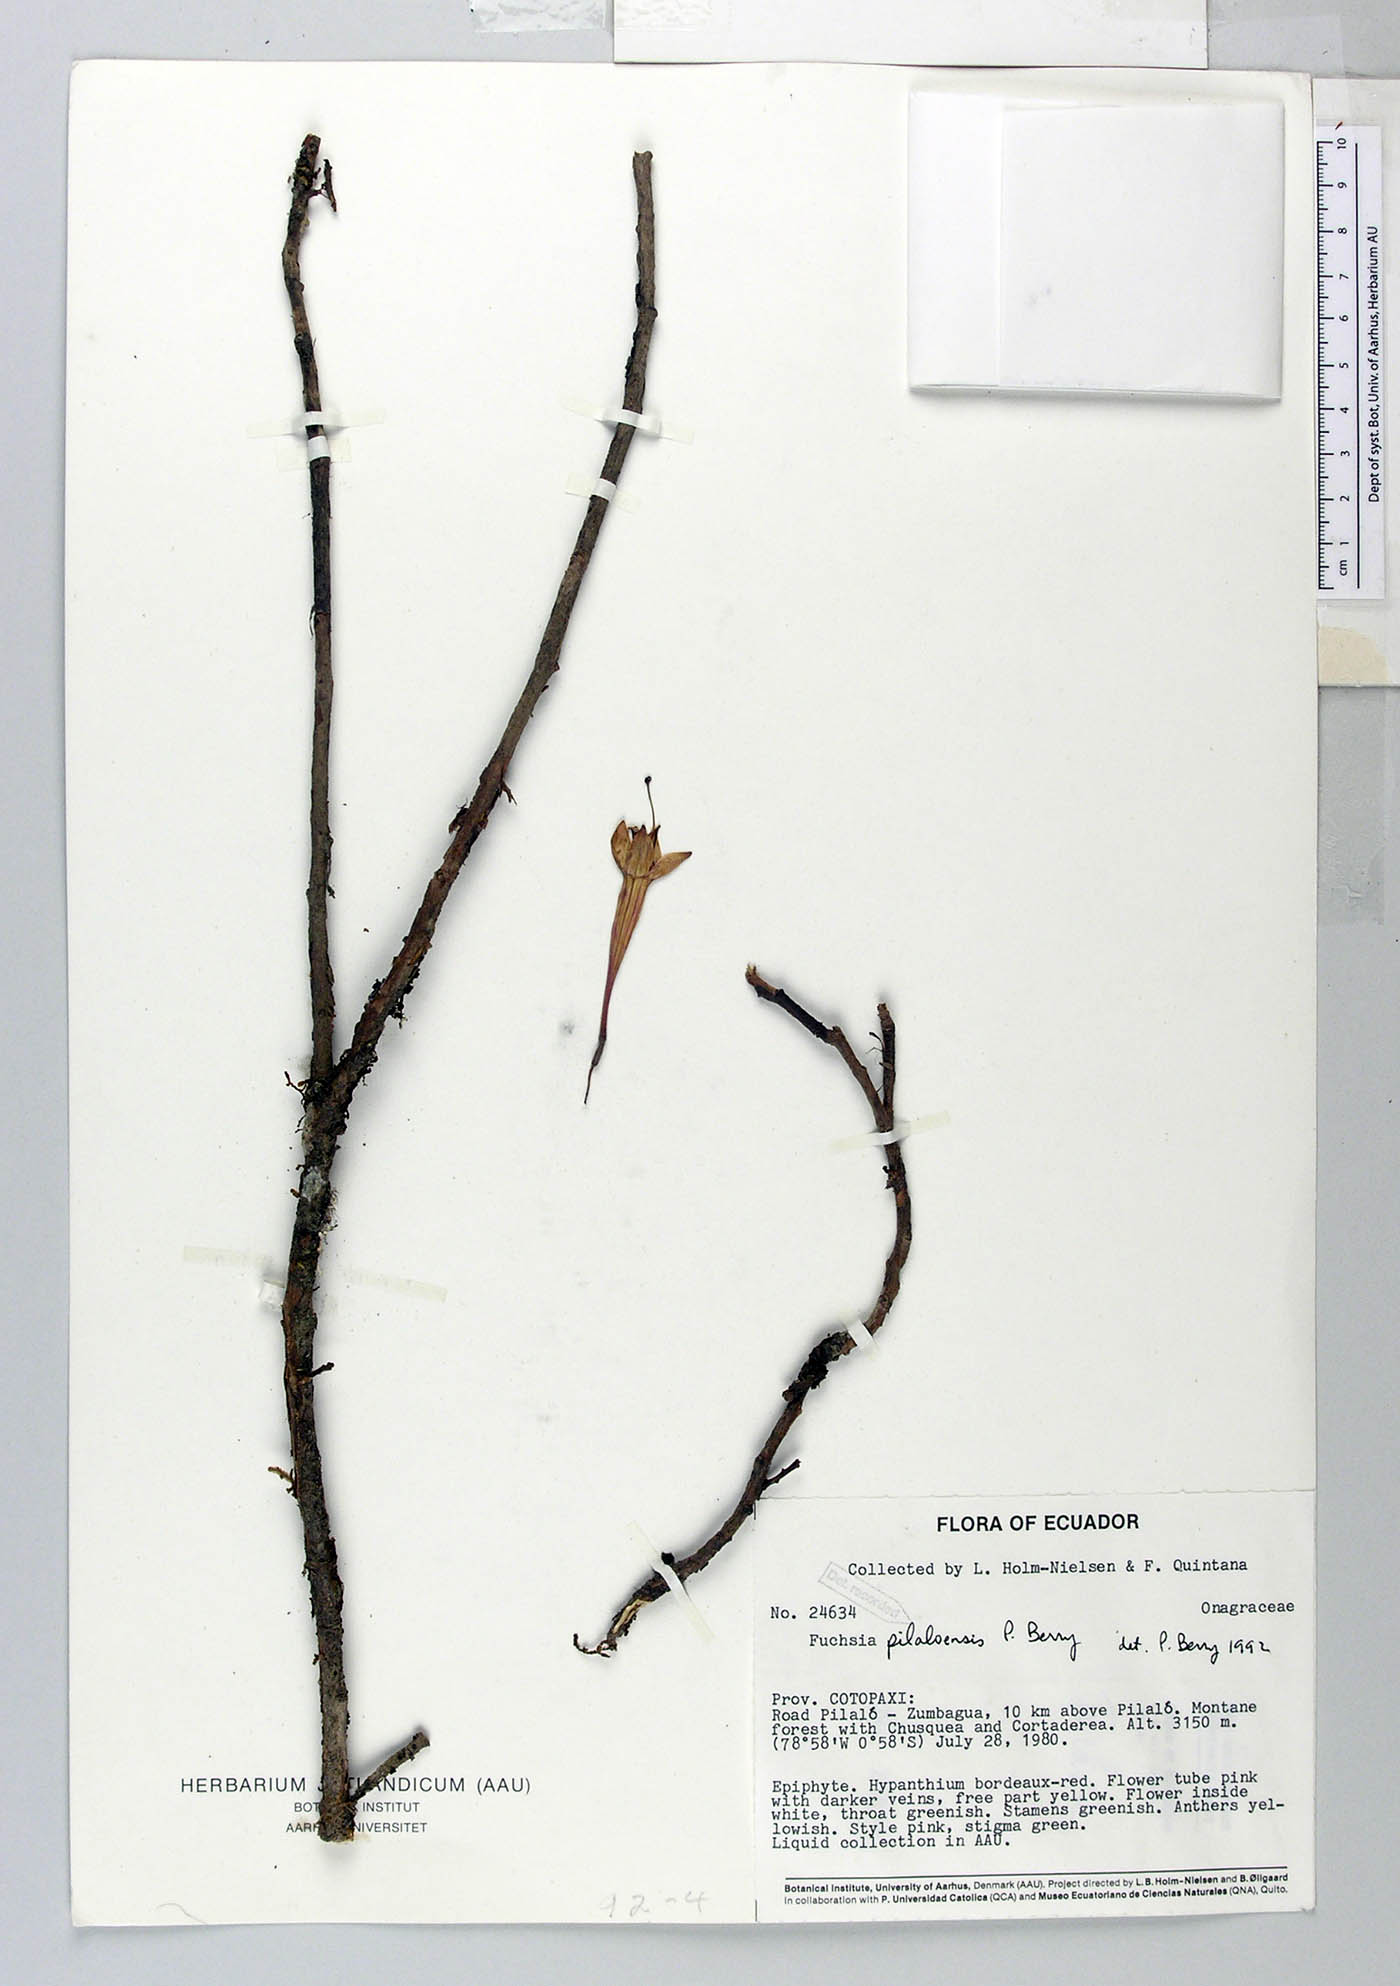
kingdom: Plantae
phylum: Tracheophyta
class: Magnoliopsida
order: Myrtales
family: Onagraceae
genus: Fuchsia
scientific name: Fuchsia pilaloensis
